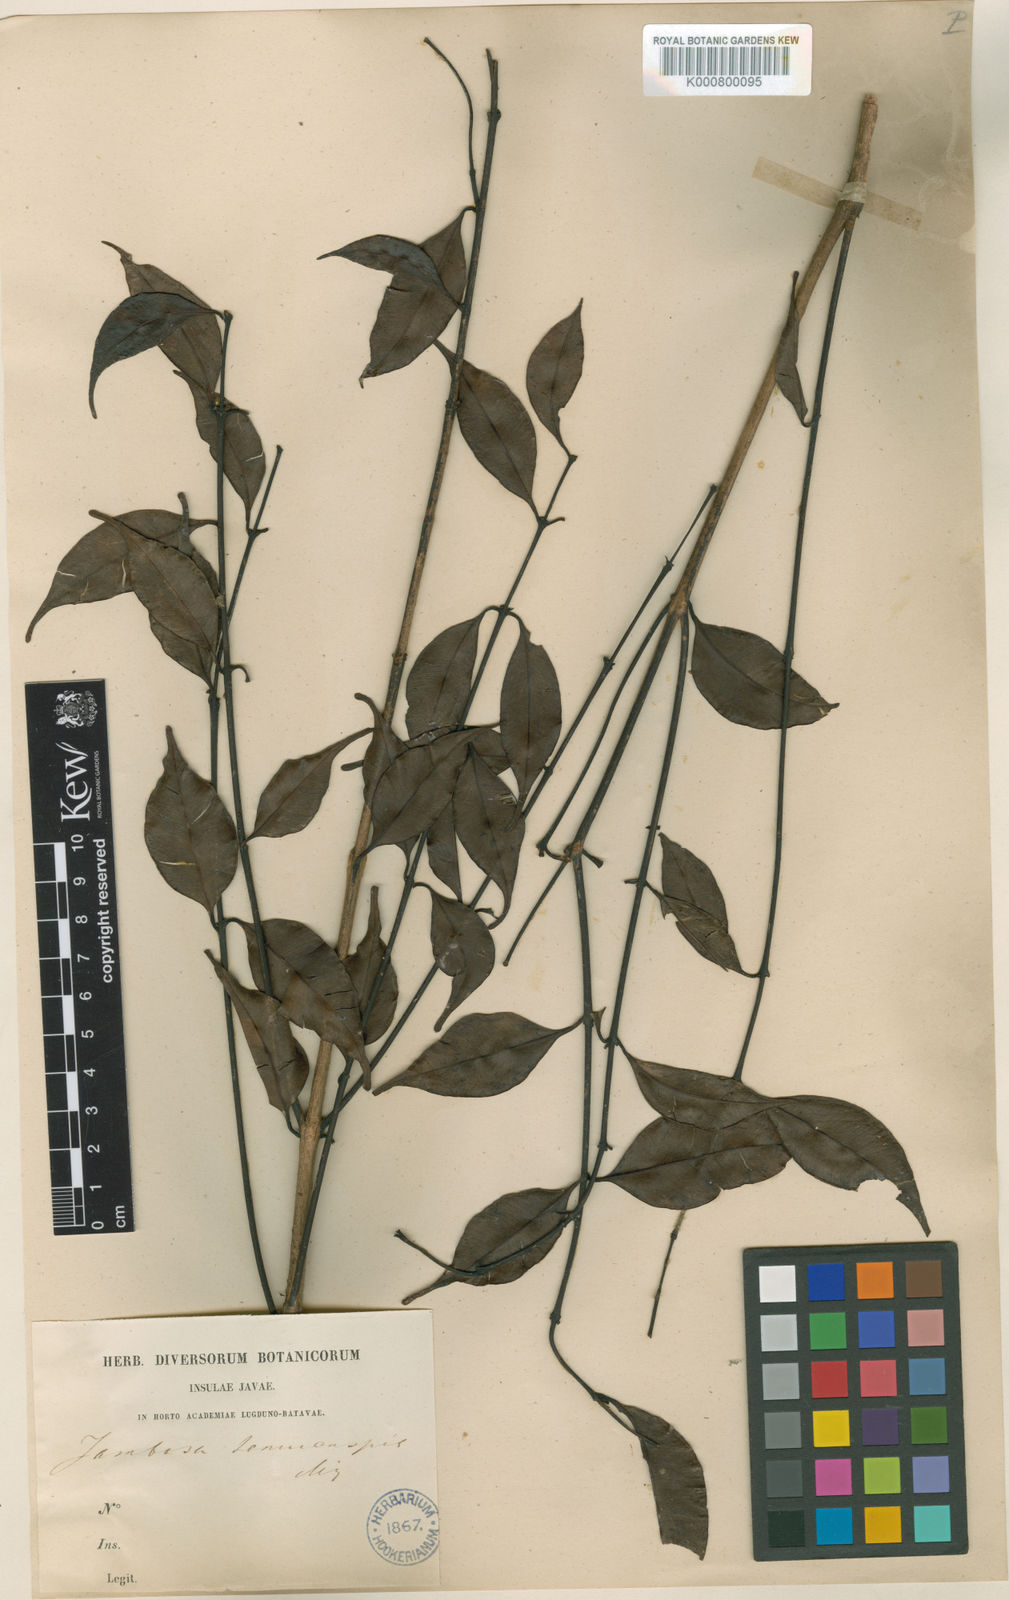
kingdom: Plantae
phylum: Tracheophyta
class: Magnoliopsida
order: Myrtales
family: Myrtaceae
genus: Syzygium
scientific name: Syzygium rostratum
